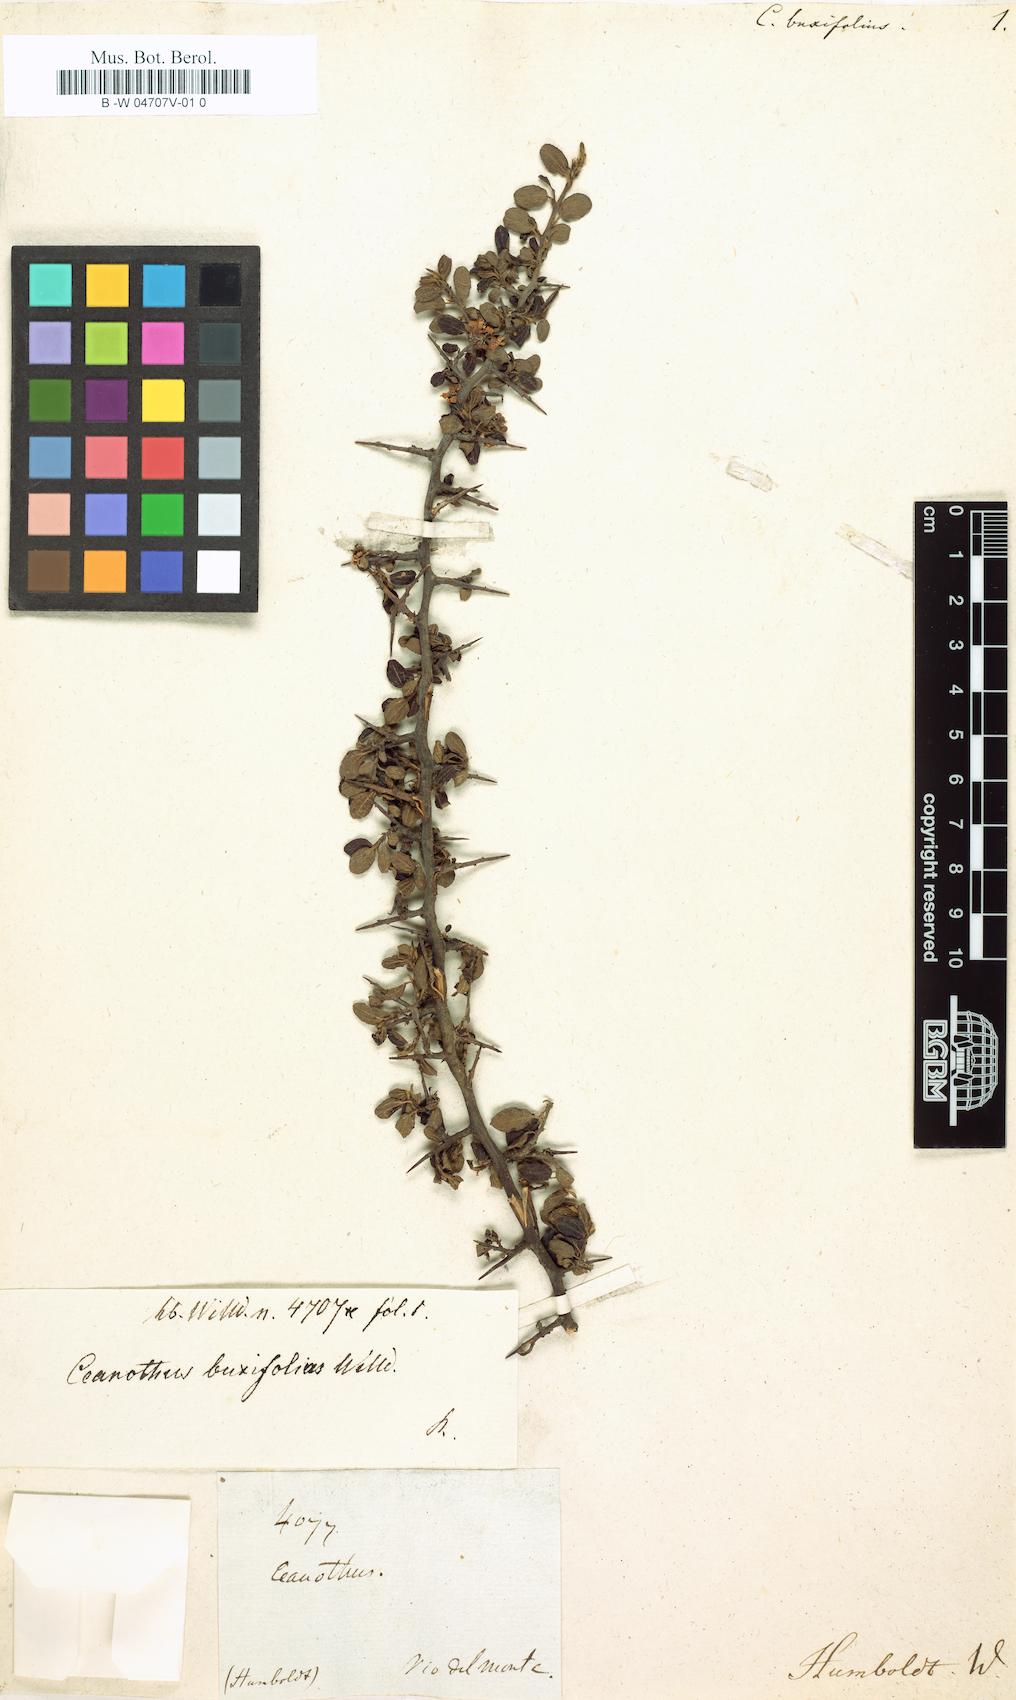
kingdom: Plantae
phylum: Tracheophyta
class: Magnoliopsida
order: Rosales
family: Rhamnaceae
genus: Ceanothus
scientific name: Ceanothus buxifolius
